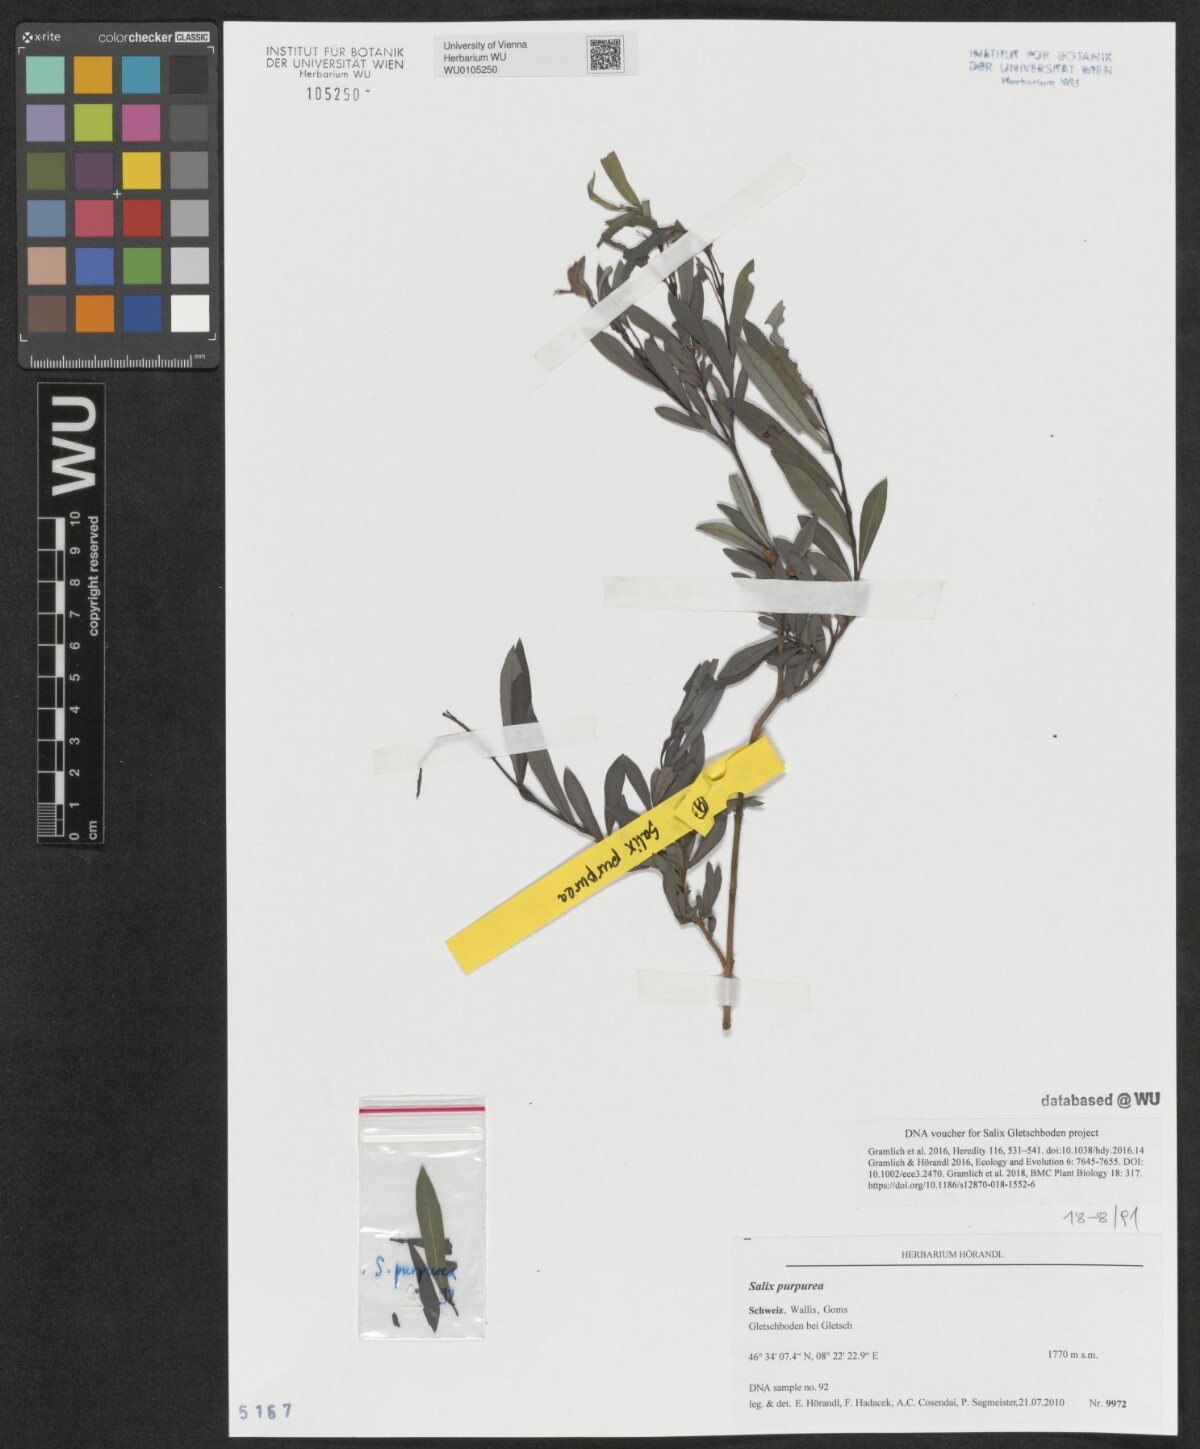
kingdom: Plantae
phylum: Tracheophyta
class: Magnoliopsida
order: Malpighiales
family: Salicaceae
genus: Salix
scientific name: Salix purpurea
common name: Purple willow
